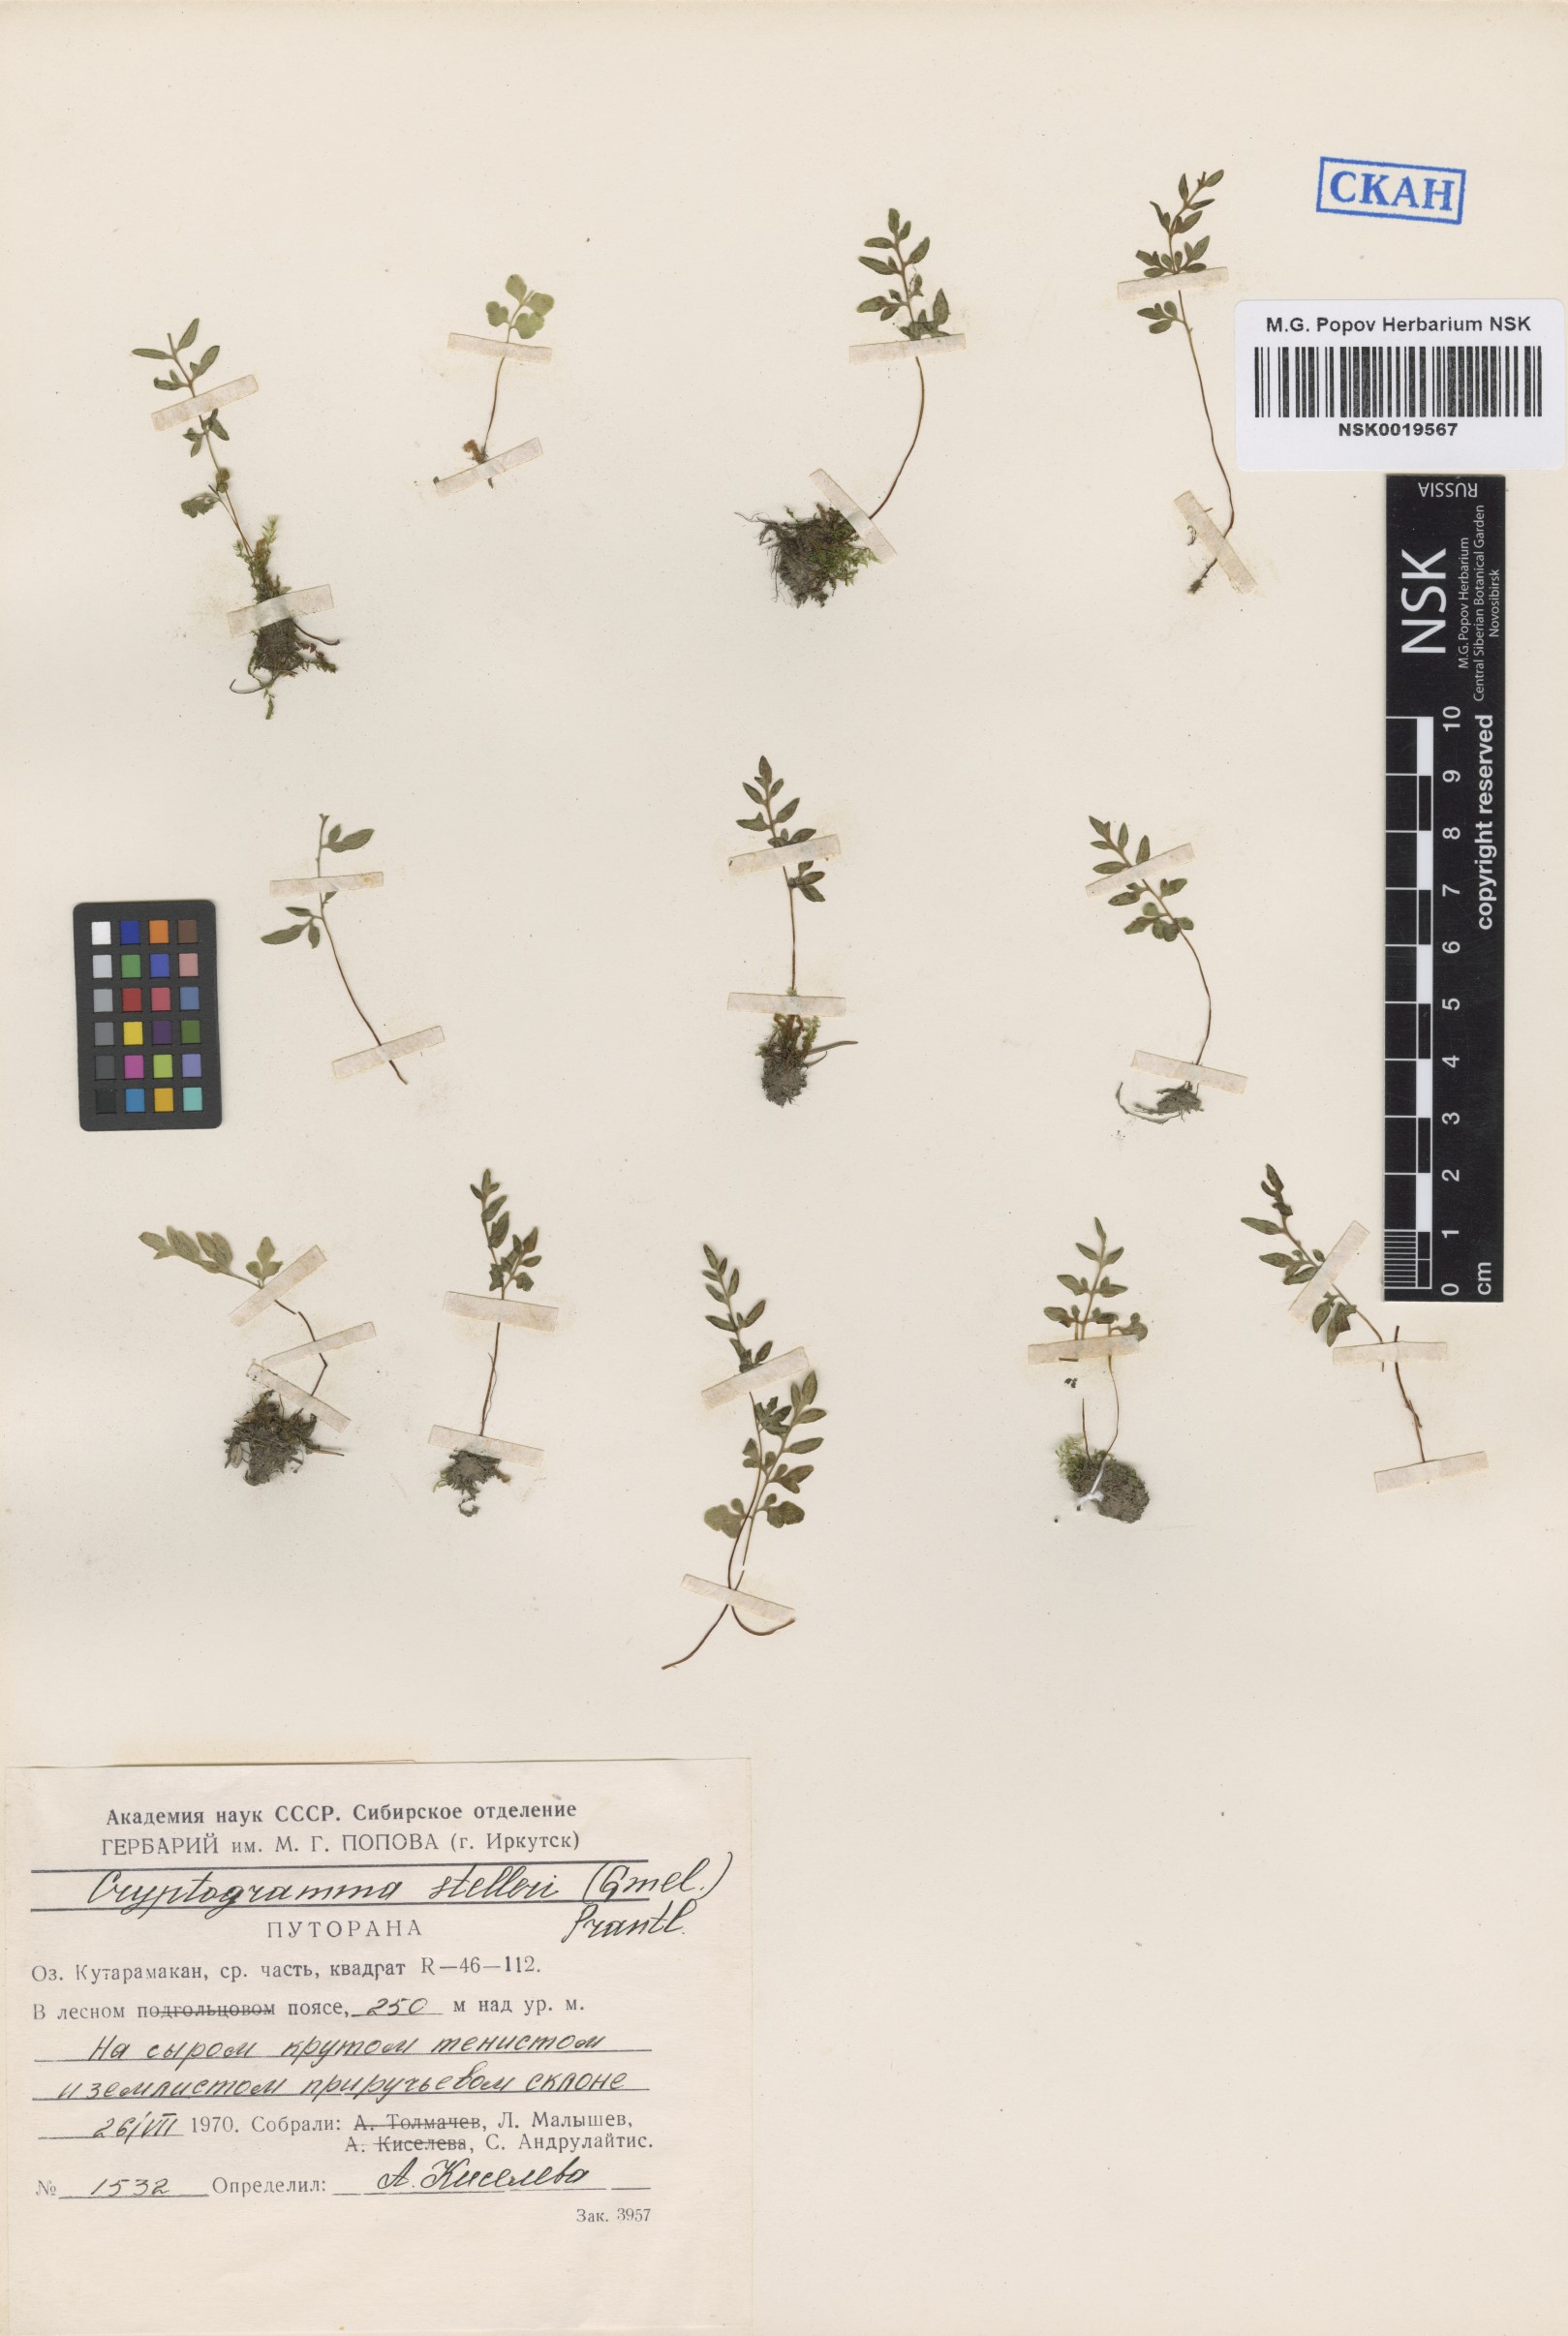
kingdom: Plantae
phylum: Tracheophyta
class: Polypodiopsida
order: Polypodiales
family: Pteridaceae
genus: Cryptogramma
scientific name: Cryptogramma stelleri
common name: Cliff-brake
